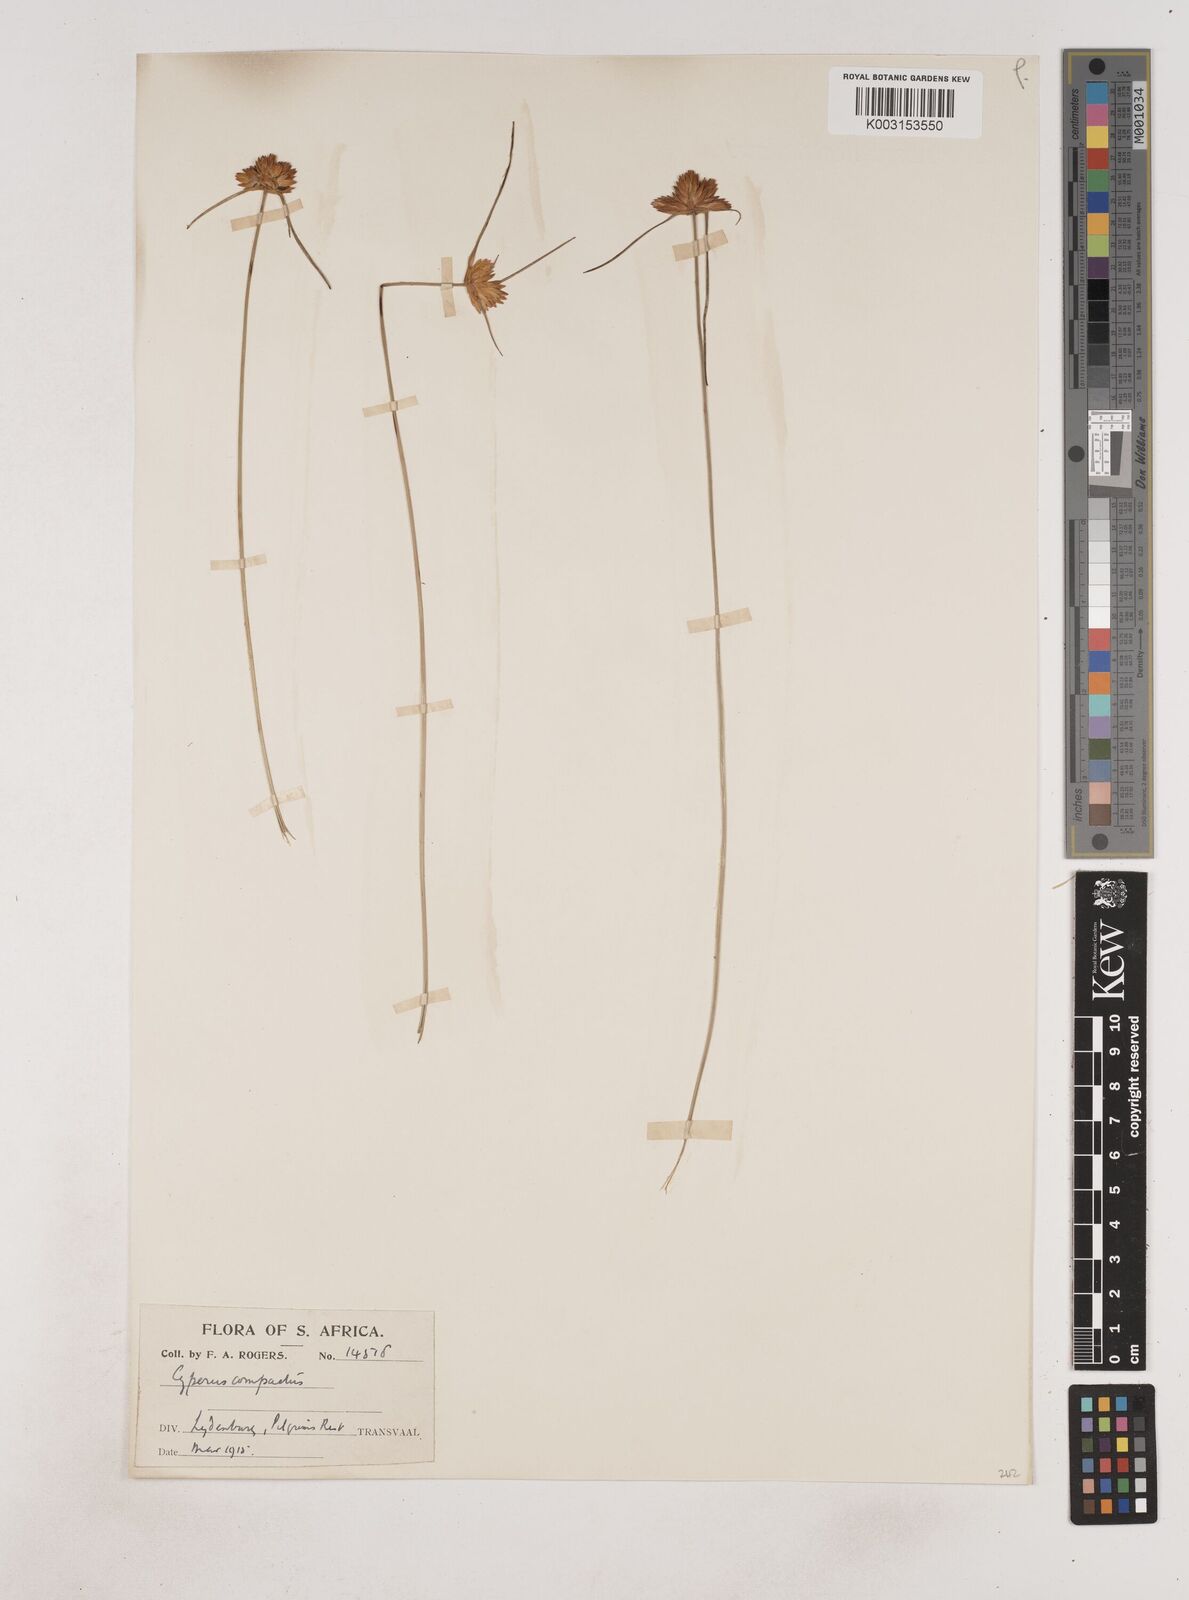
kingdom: Plantae
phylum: Tracheophyta
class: Liliopsida
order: Poales
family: Cyperaceae
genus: Cyperus
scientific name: Cyperus niveus
